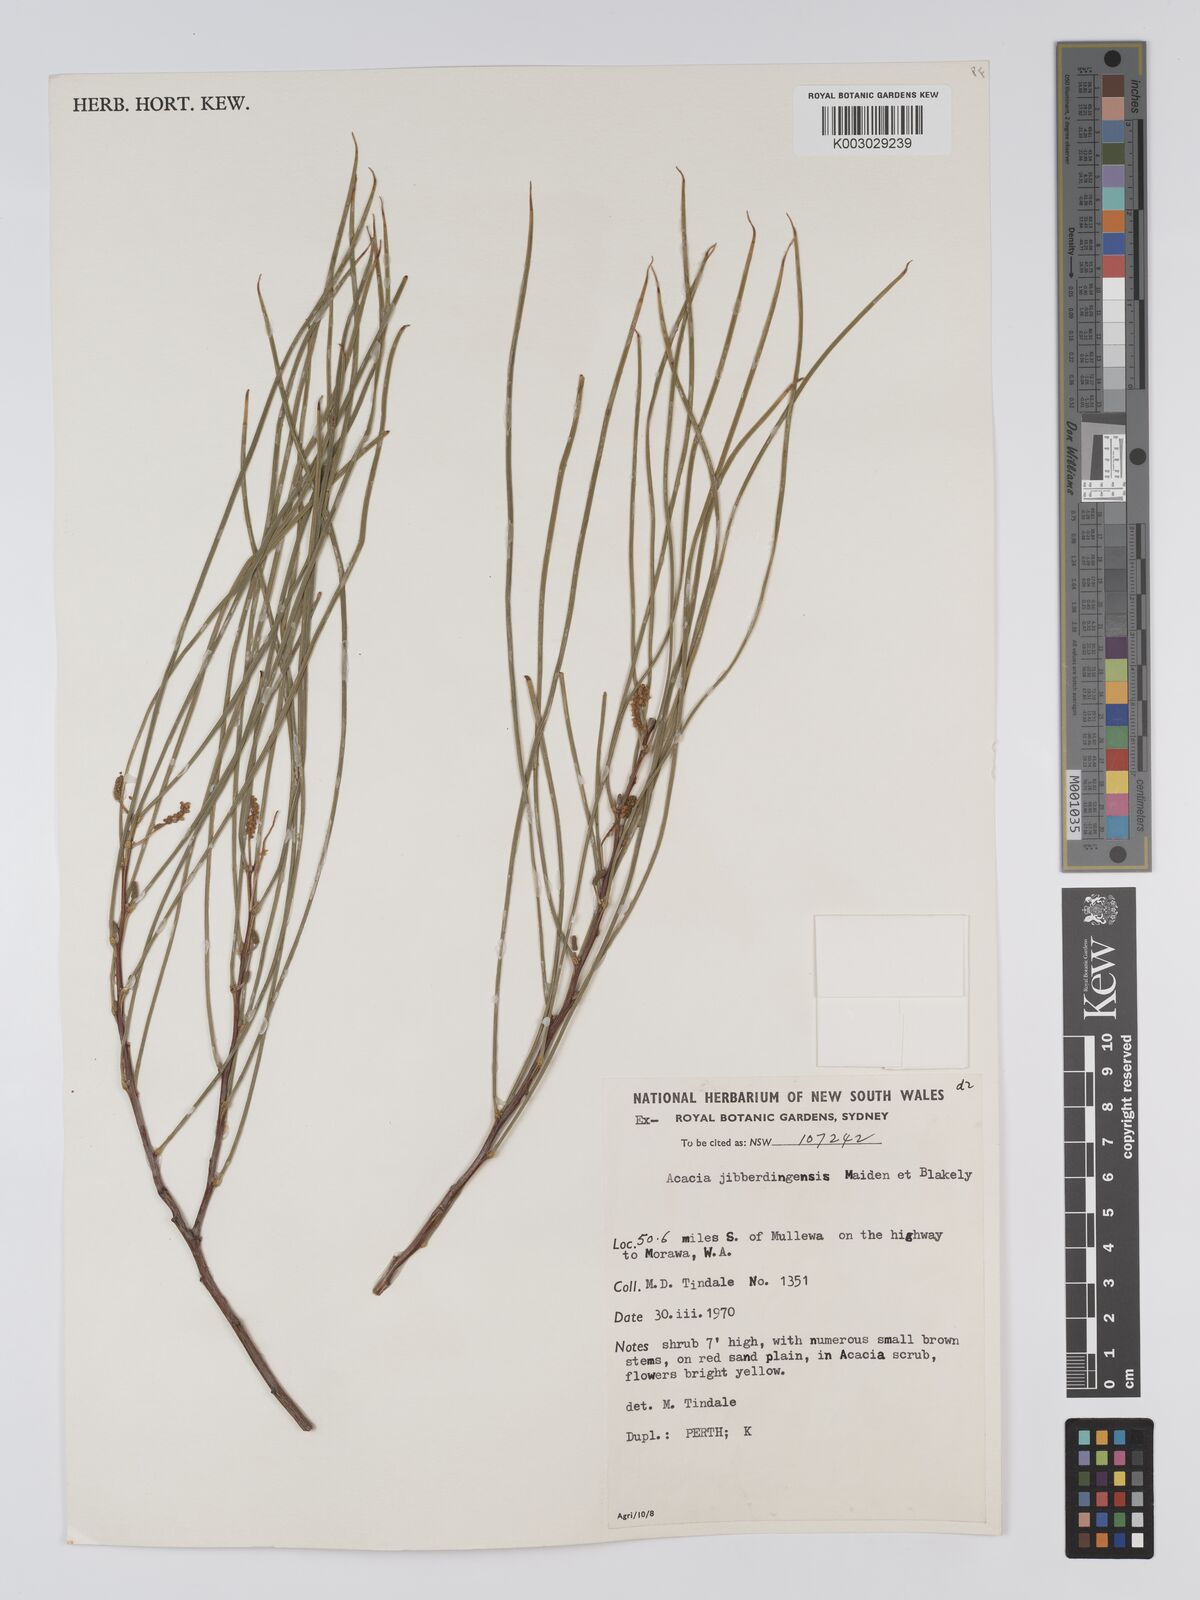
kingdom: Plantae
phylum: Tracheophyta
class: Magnoliopsida
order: Fabales
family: Fabaceae
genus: Acacia
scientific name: Acacia jibberdingensis
